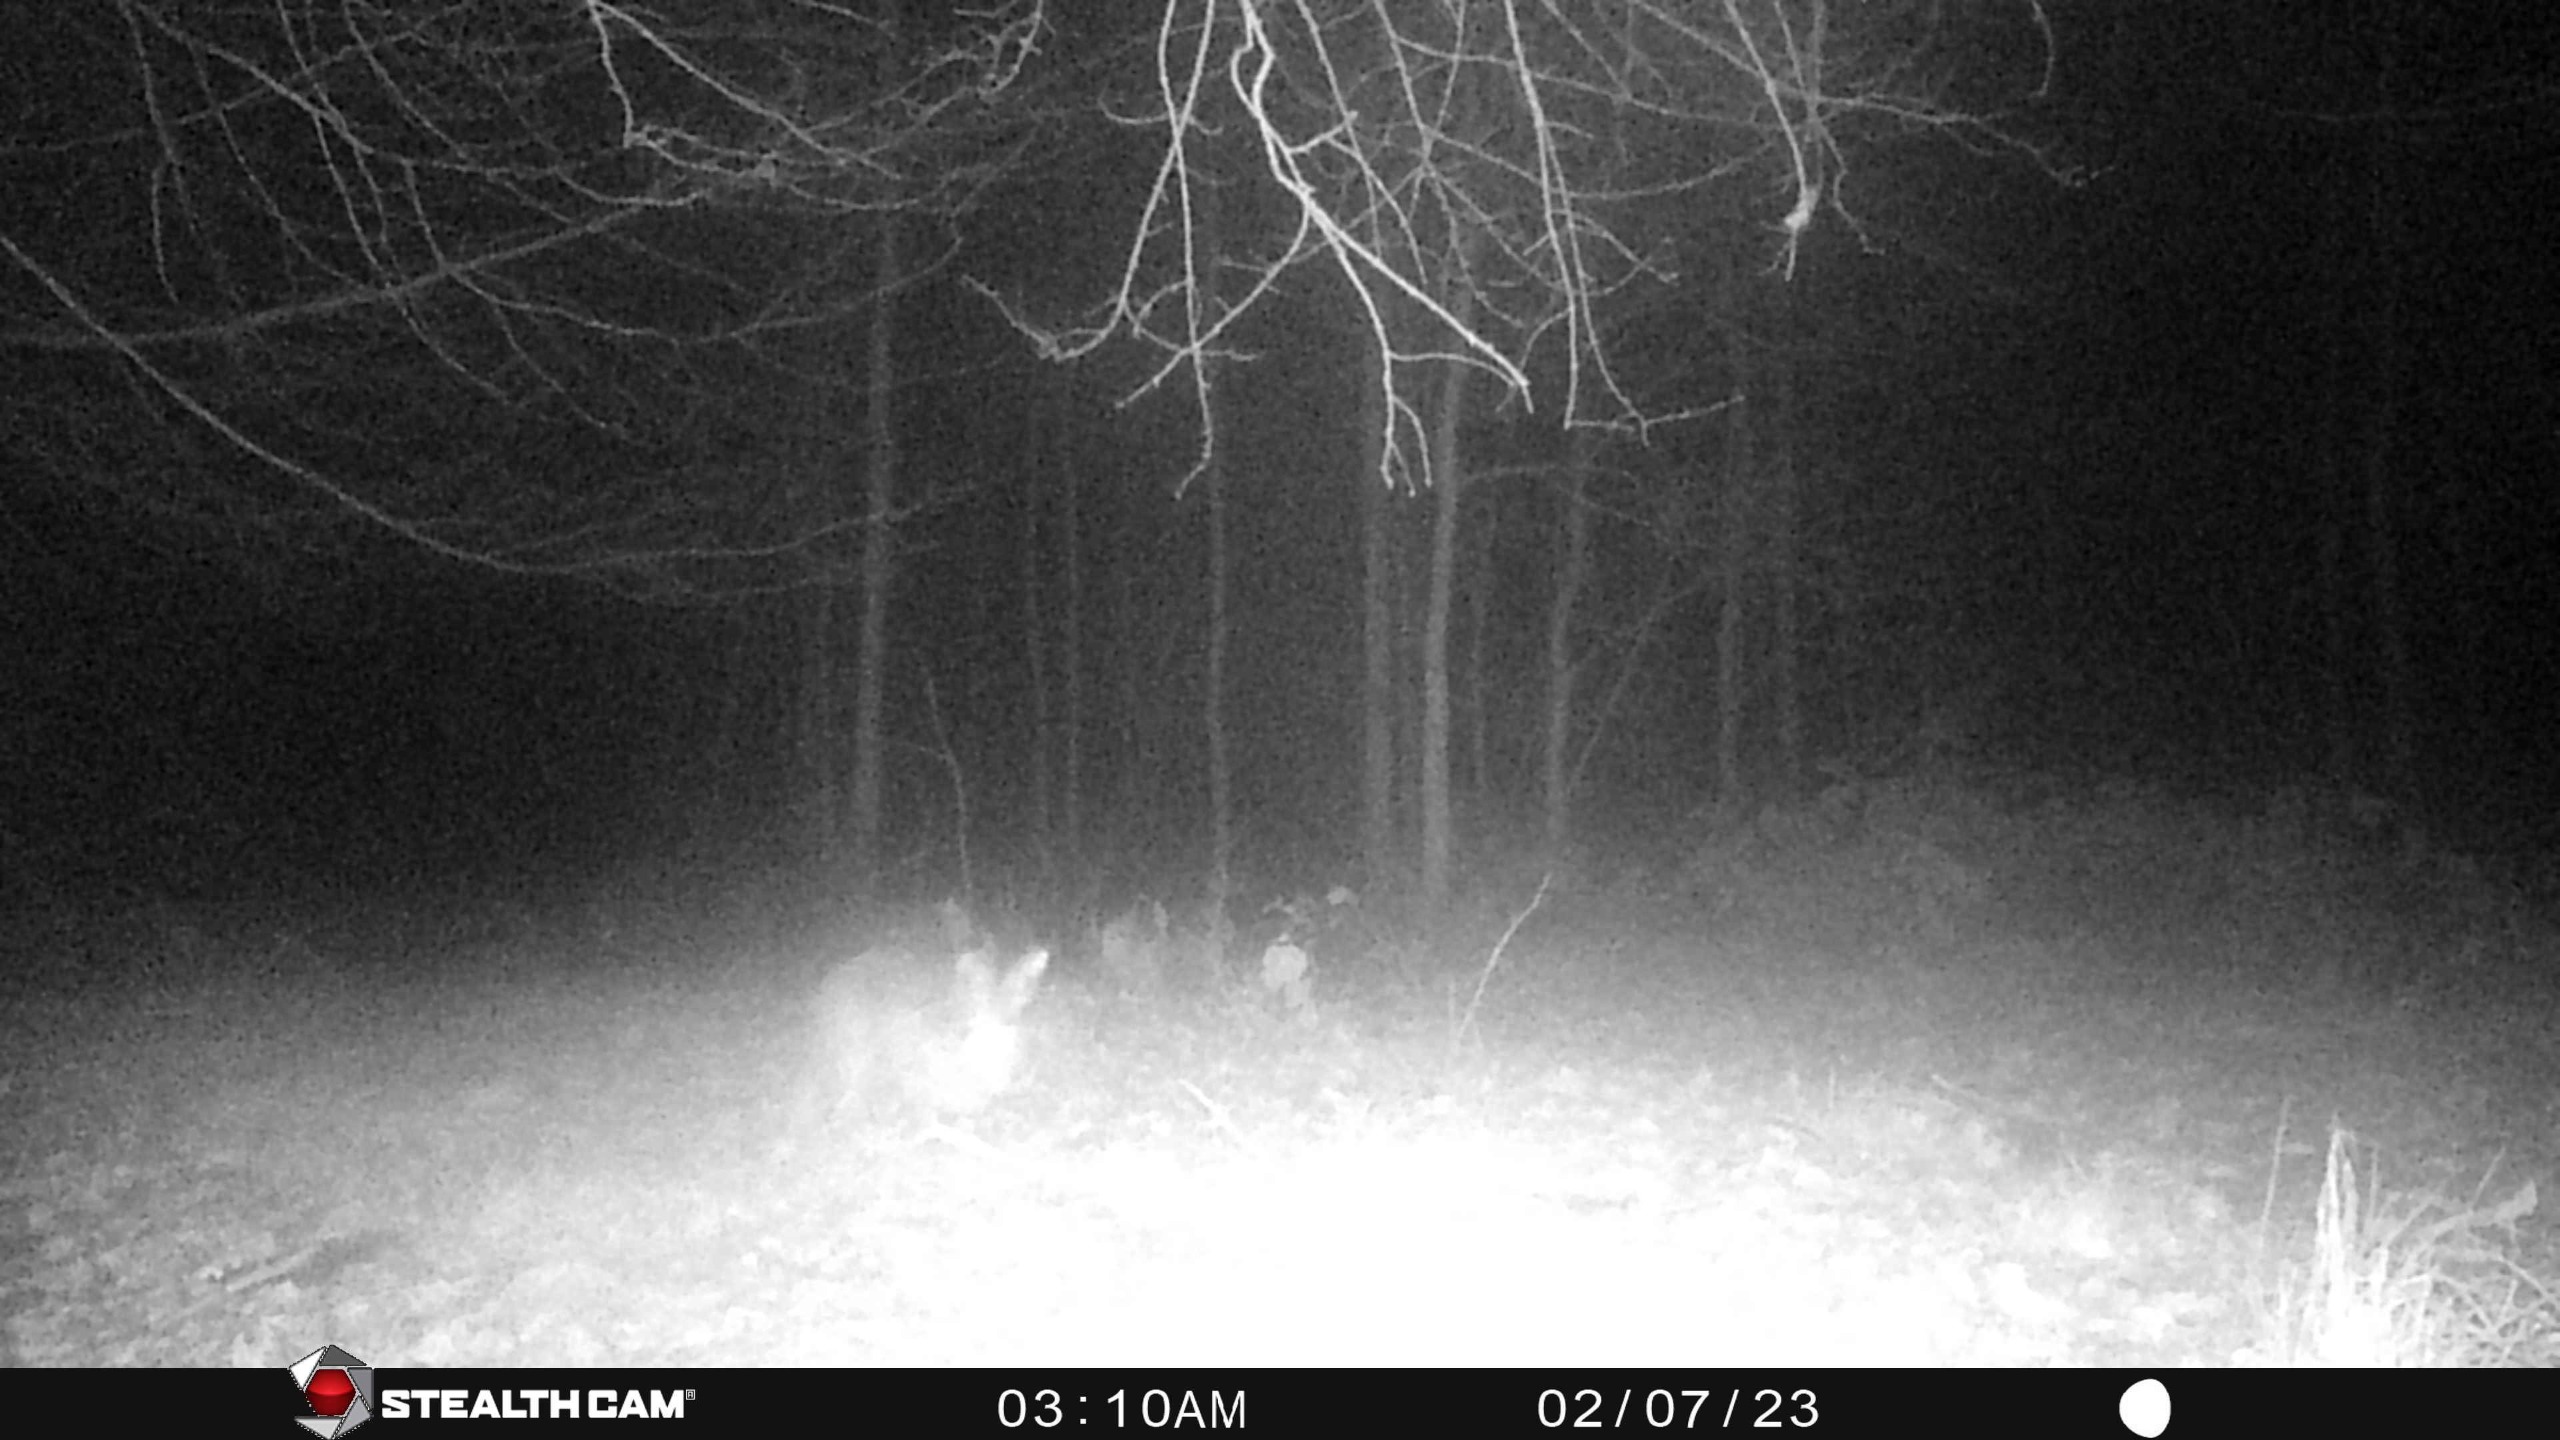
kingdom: Animalia
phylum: Chordata
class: Mammalia
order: Lagomorpha
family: Leporidae
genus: Lepus
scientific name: Lepus europaeus
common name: Hare
